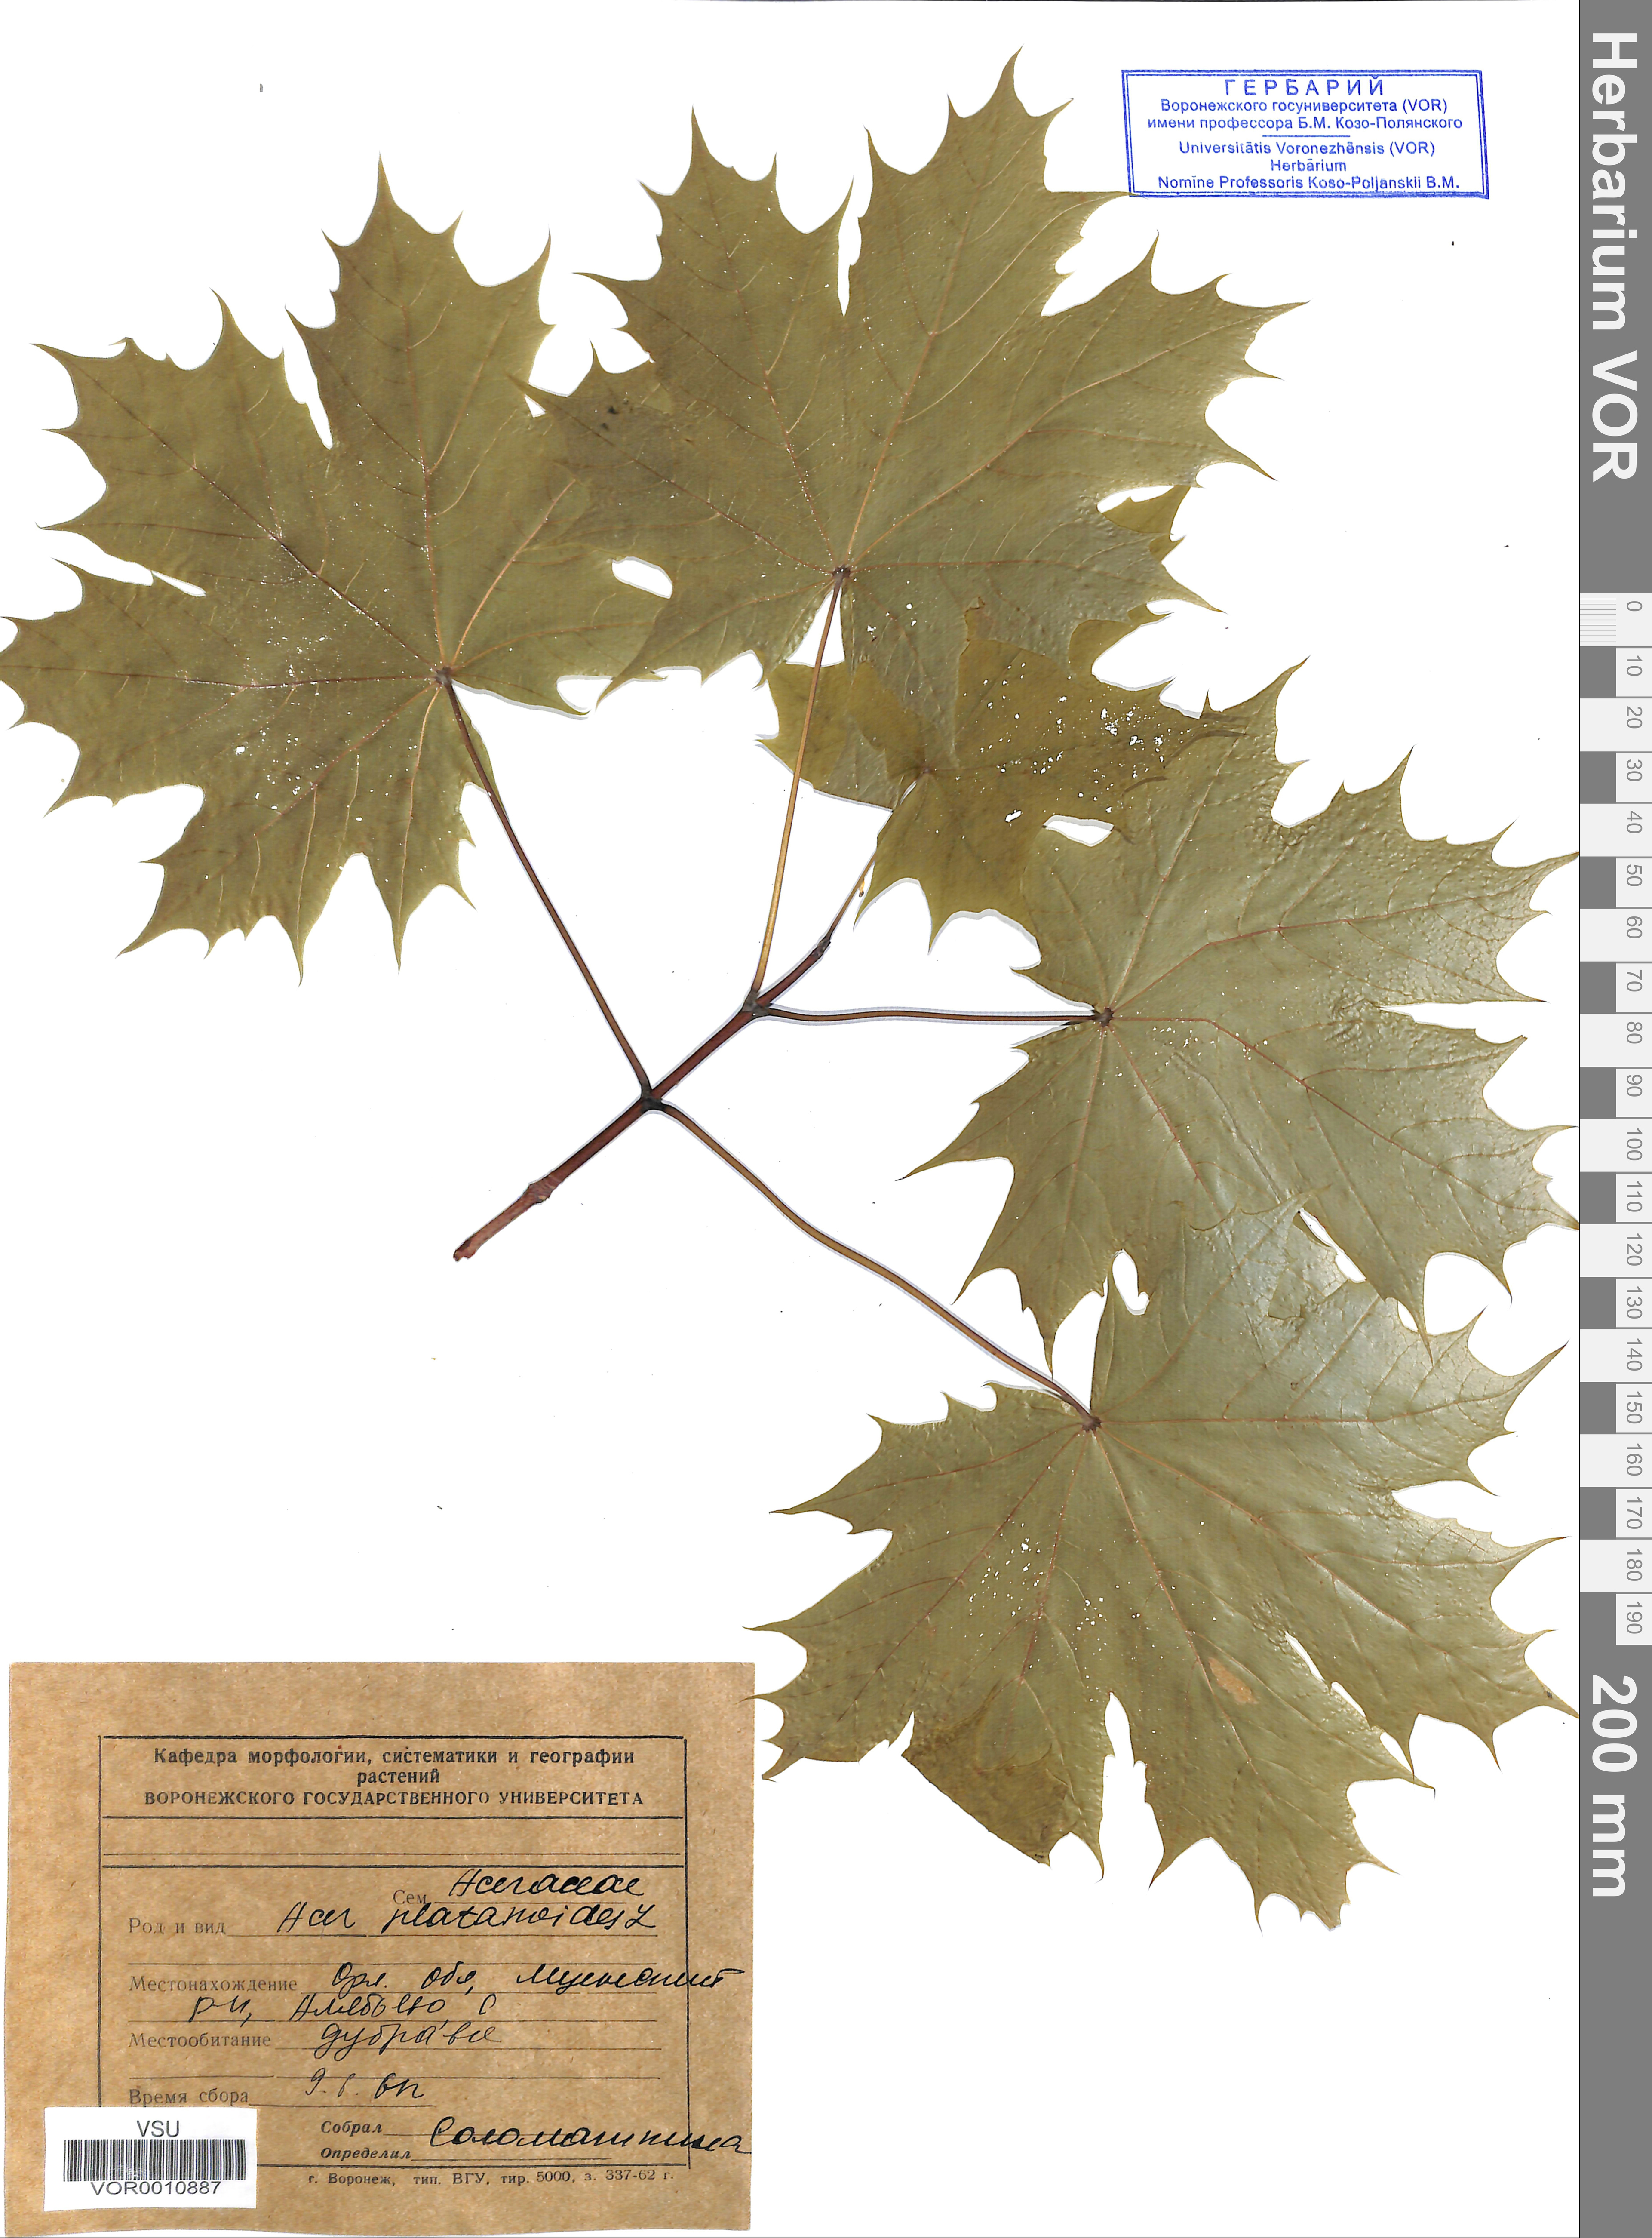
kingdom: Plantae
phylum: Tracheophyta
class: Magnoliopsida
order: Sapindales
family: Sapindaceae
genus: Acer
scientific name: Acer platanoides
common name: Norway maple
